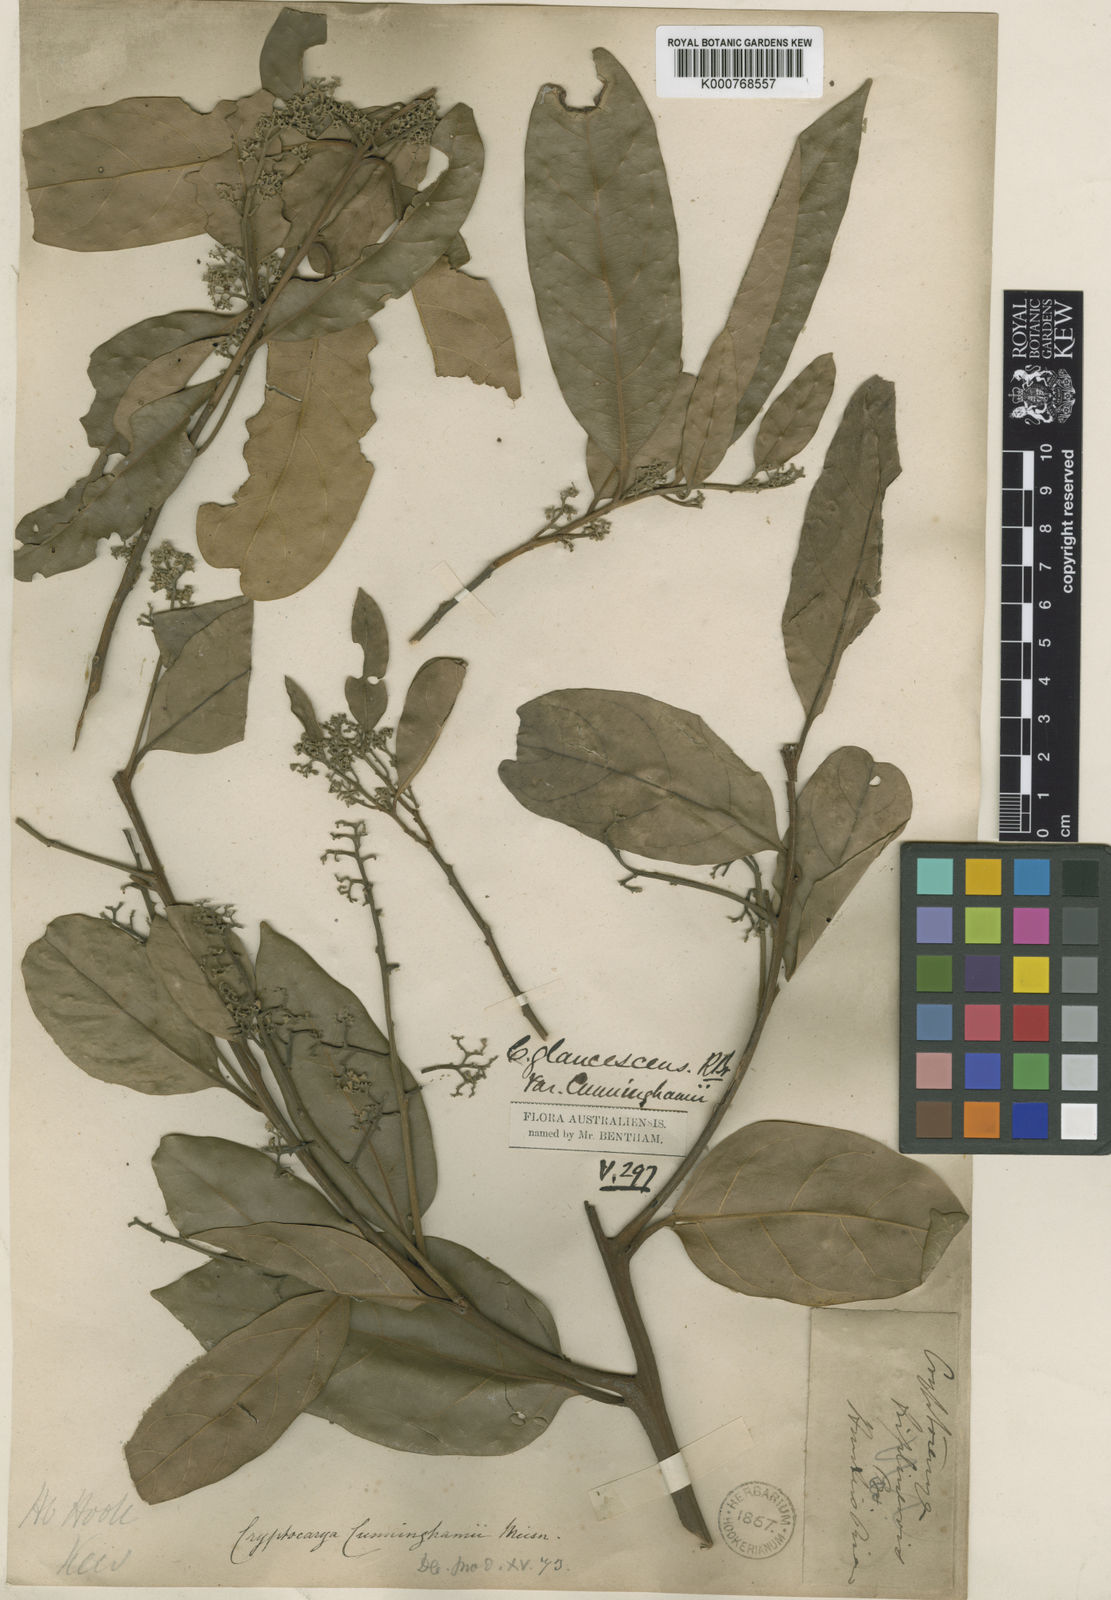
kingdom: Plantae
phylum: Tracheophyta
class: Magnoliopsida
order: Laurales
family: Lauraceae
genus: Cryptocarya
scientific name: Cryptocarya cunninghamii
